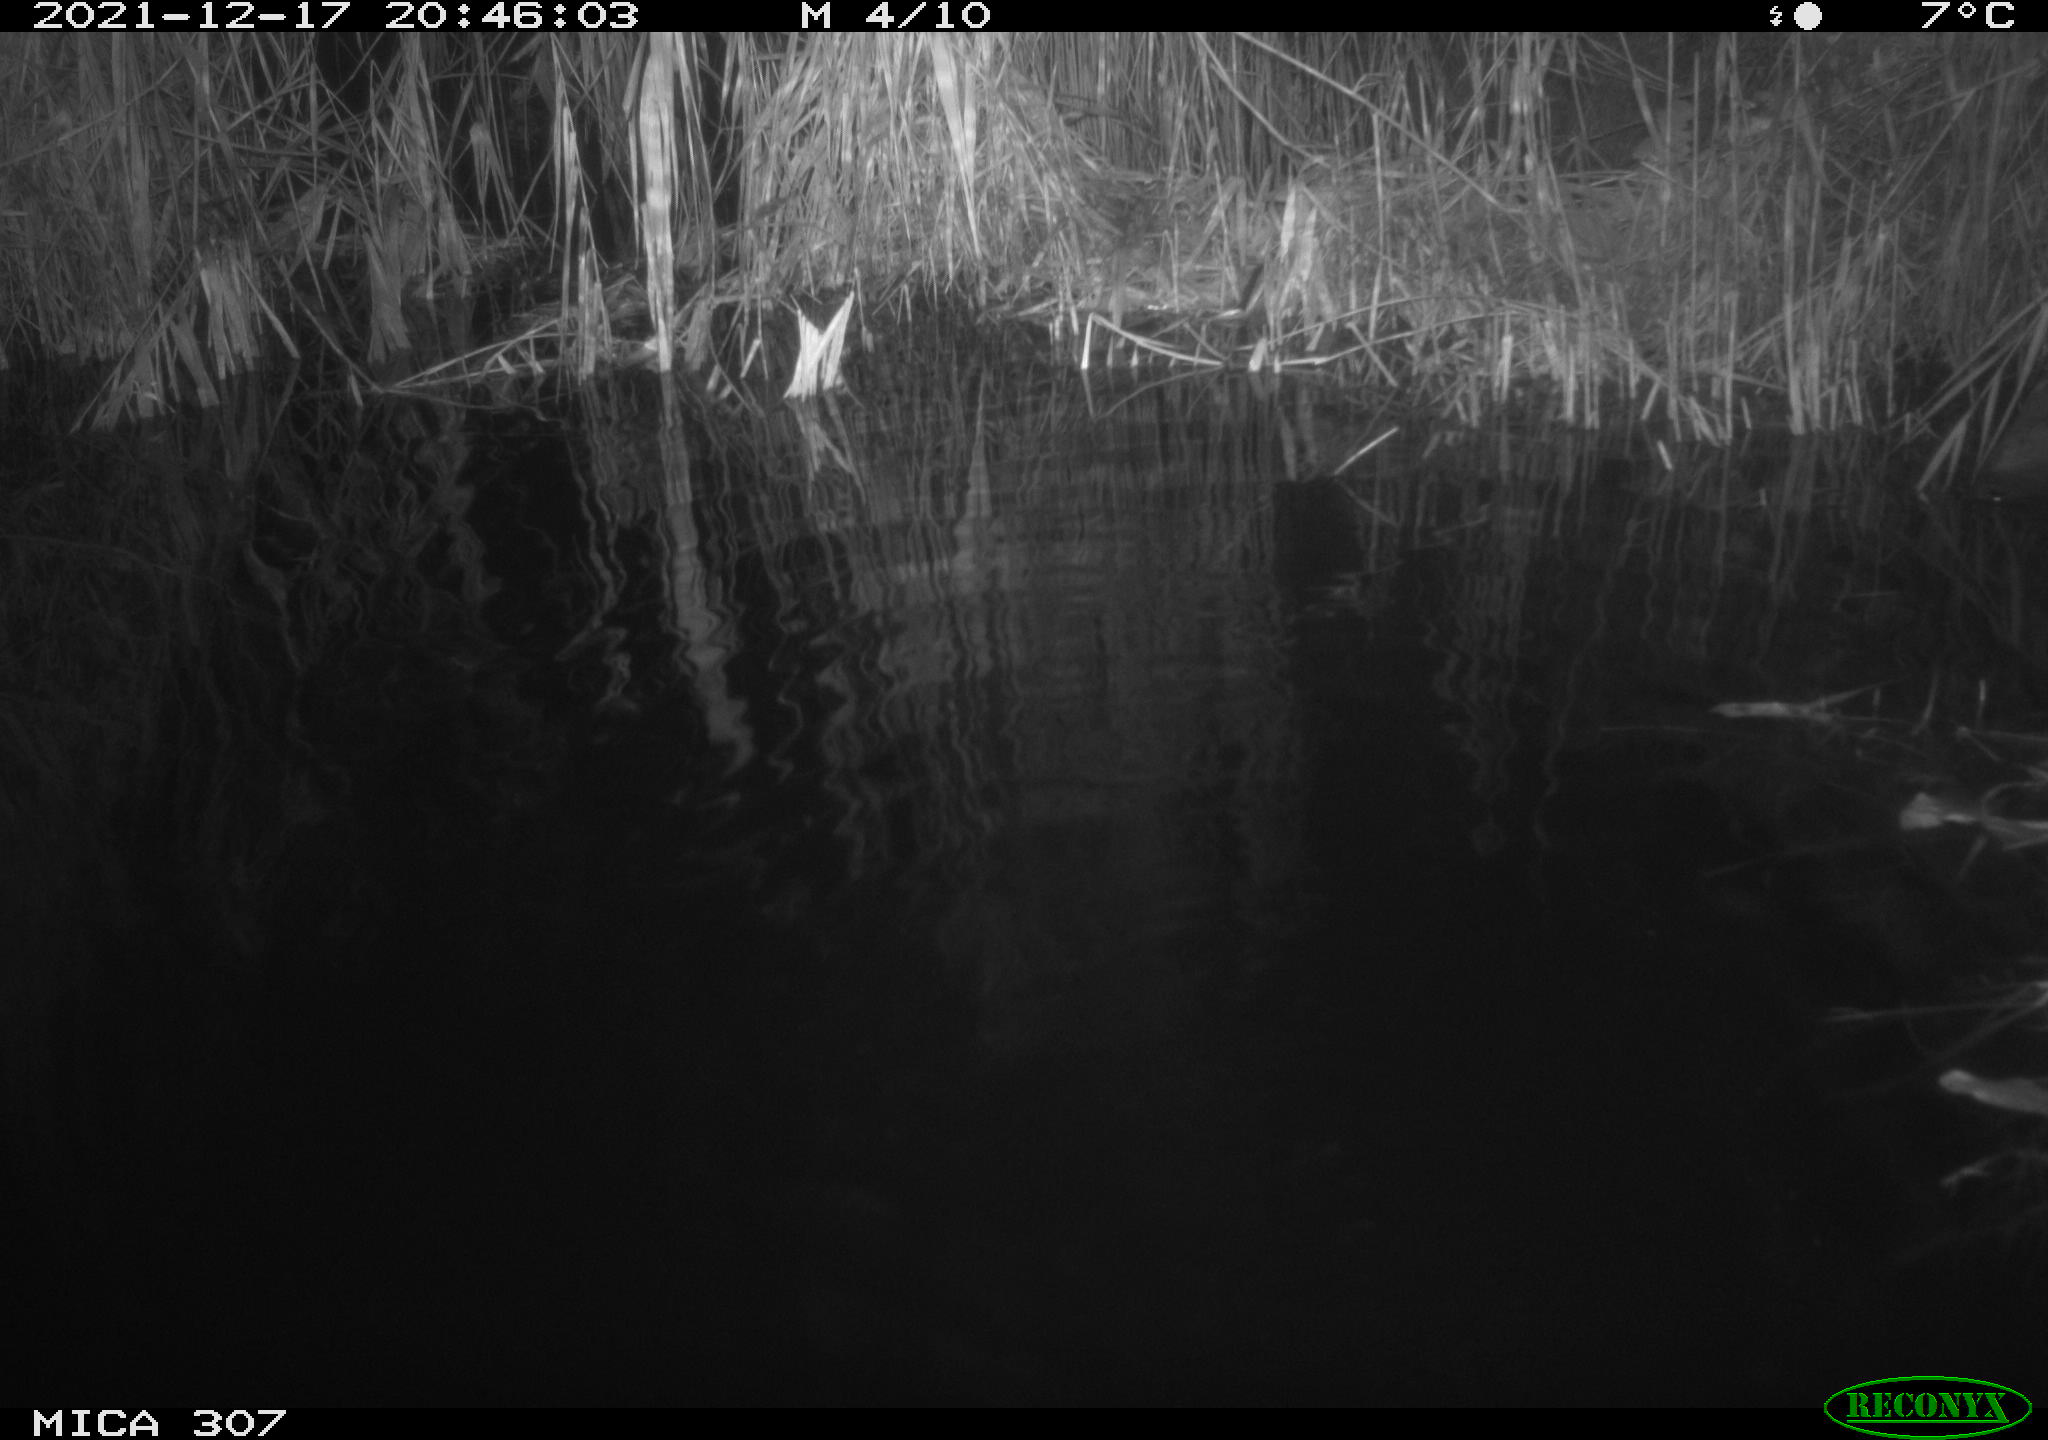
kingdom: Animalia
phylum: Chordata
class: Mammalia
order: Rodentia
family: Muridae
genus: Rattus
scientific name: Rattus norvegicus
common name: Brown rat
